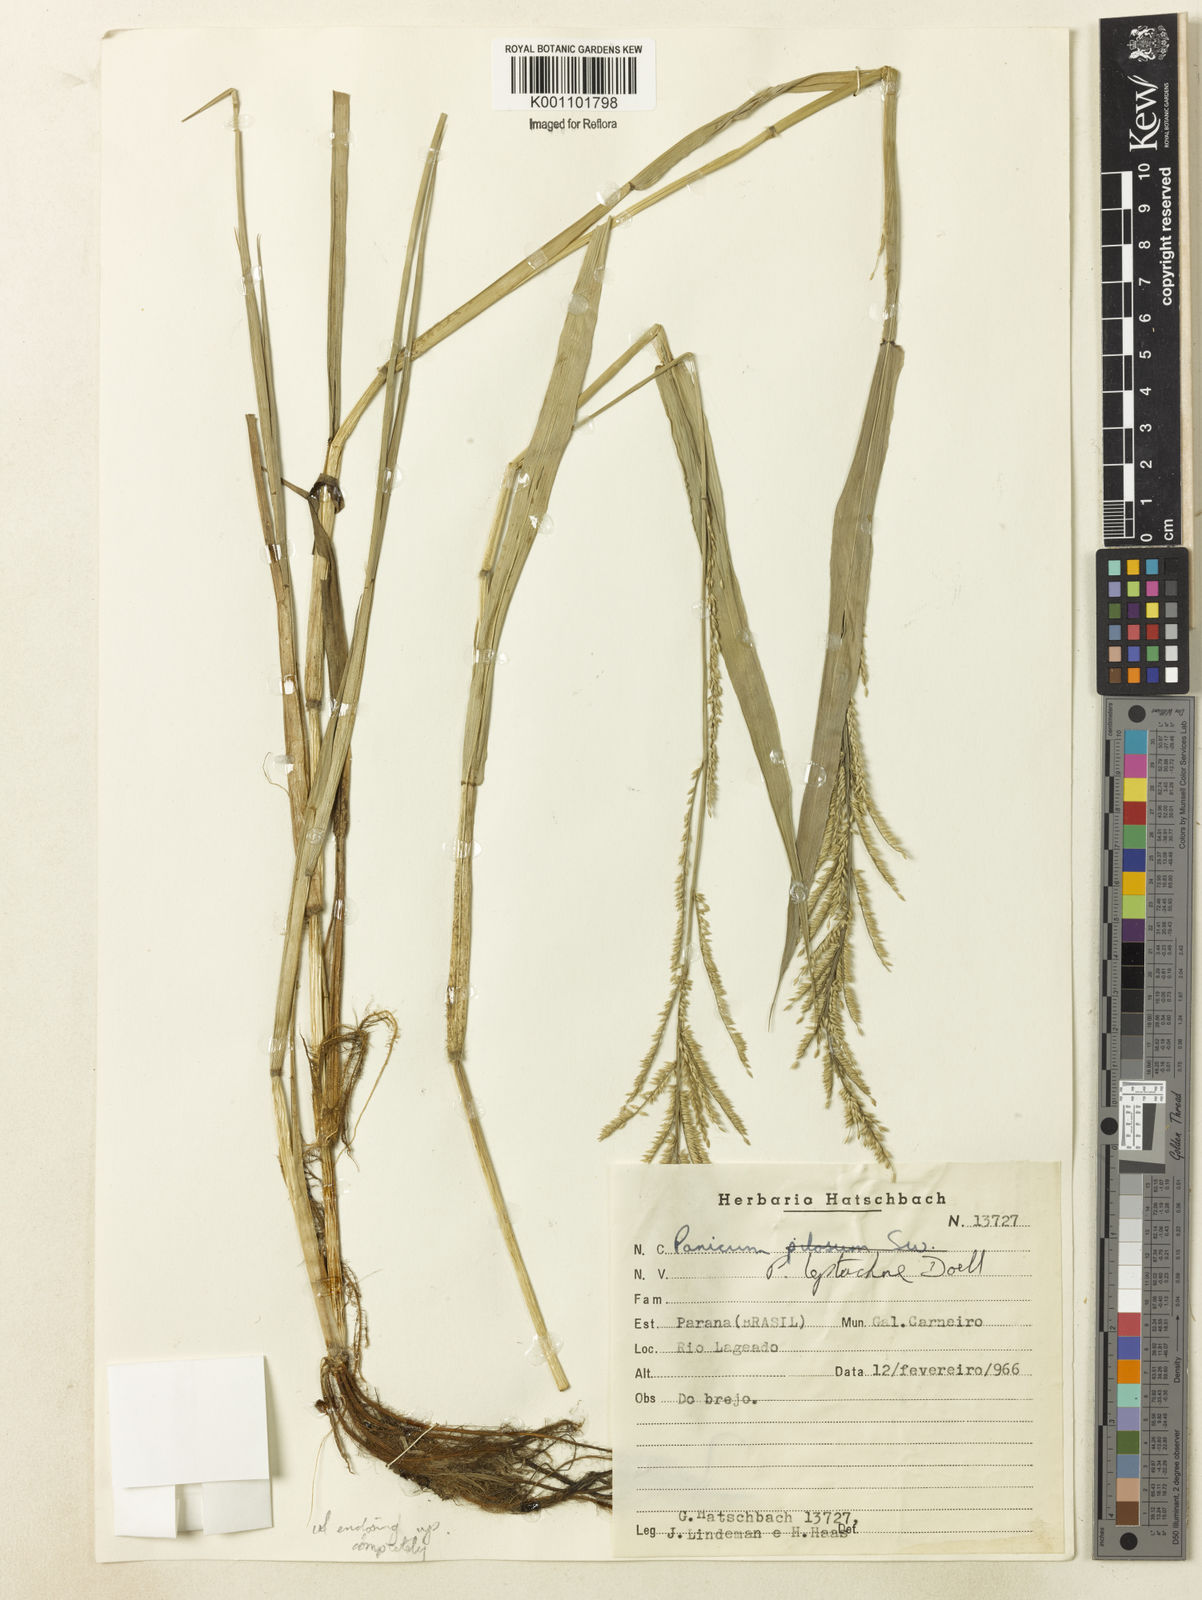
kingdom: Plantae
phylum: Tracheophyta
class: Liliopsida
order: Poales
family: Poaceae
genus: Panicum
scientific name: Panicum
